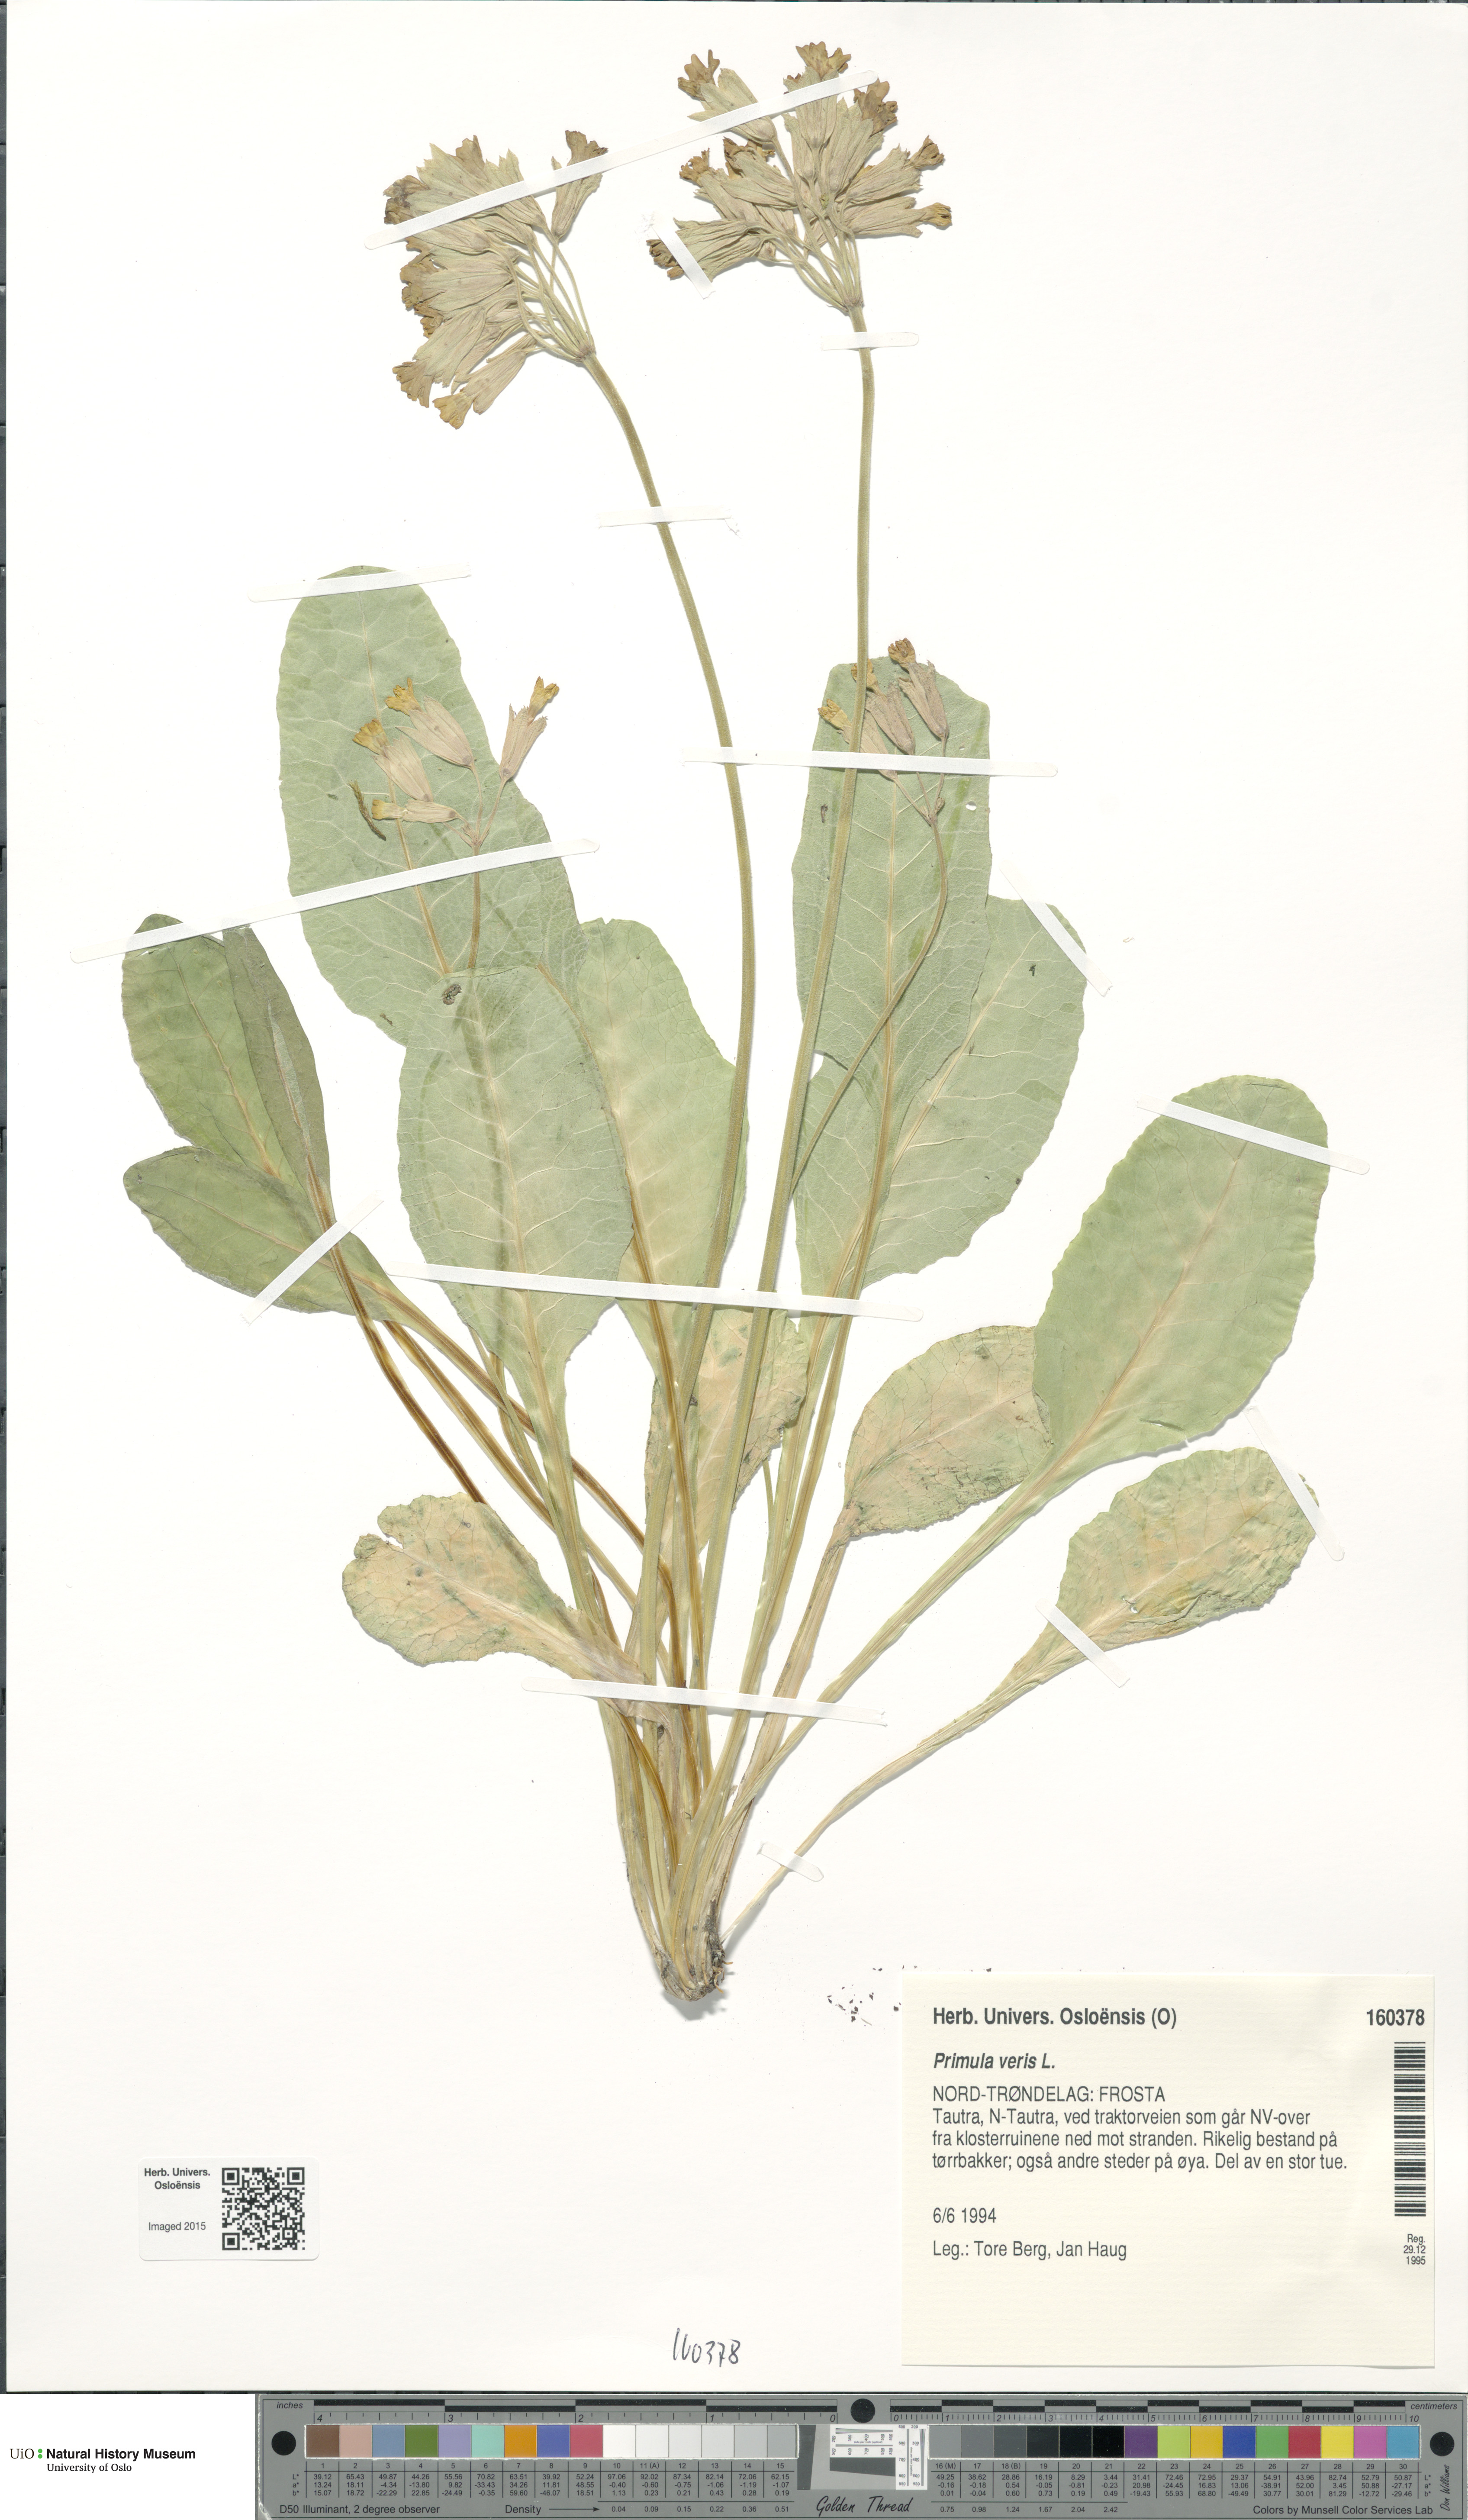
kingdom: Plantae
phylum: Tracheophyta
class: Magnoliopsida
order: Ericales
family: Primulaceae
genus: Primula
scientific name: Primula veris
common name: Cowslip
